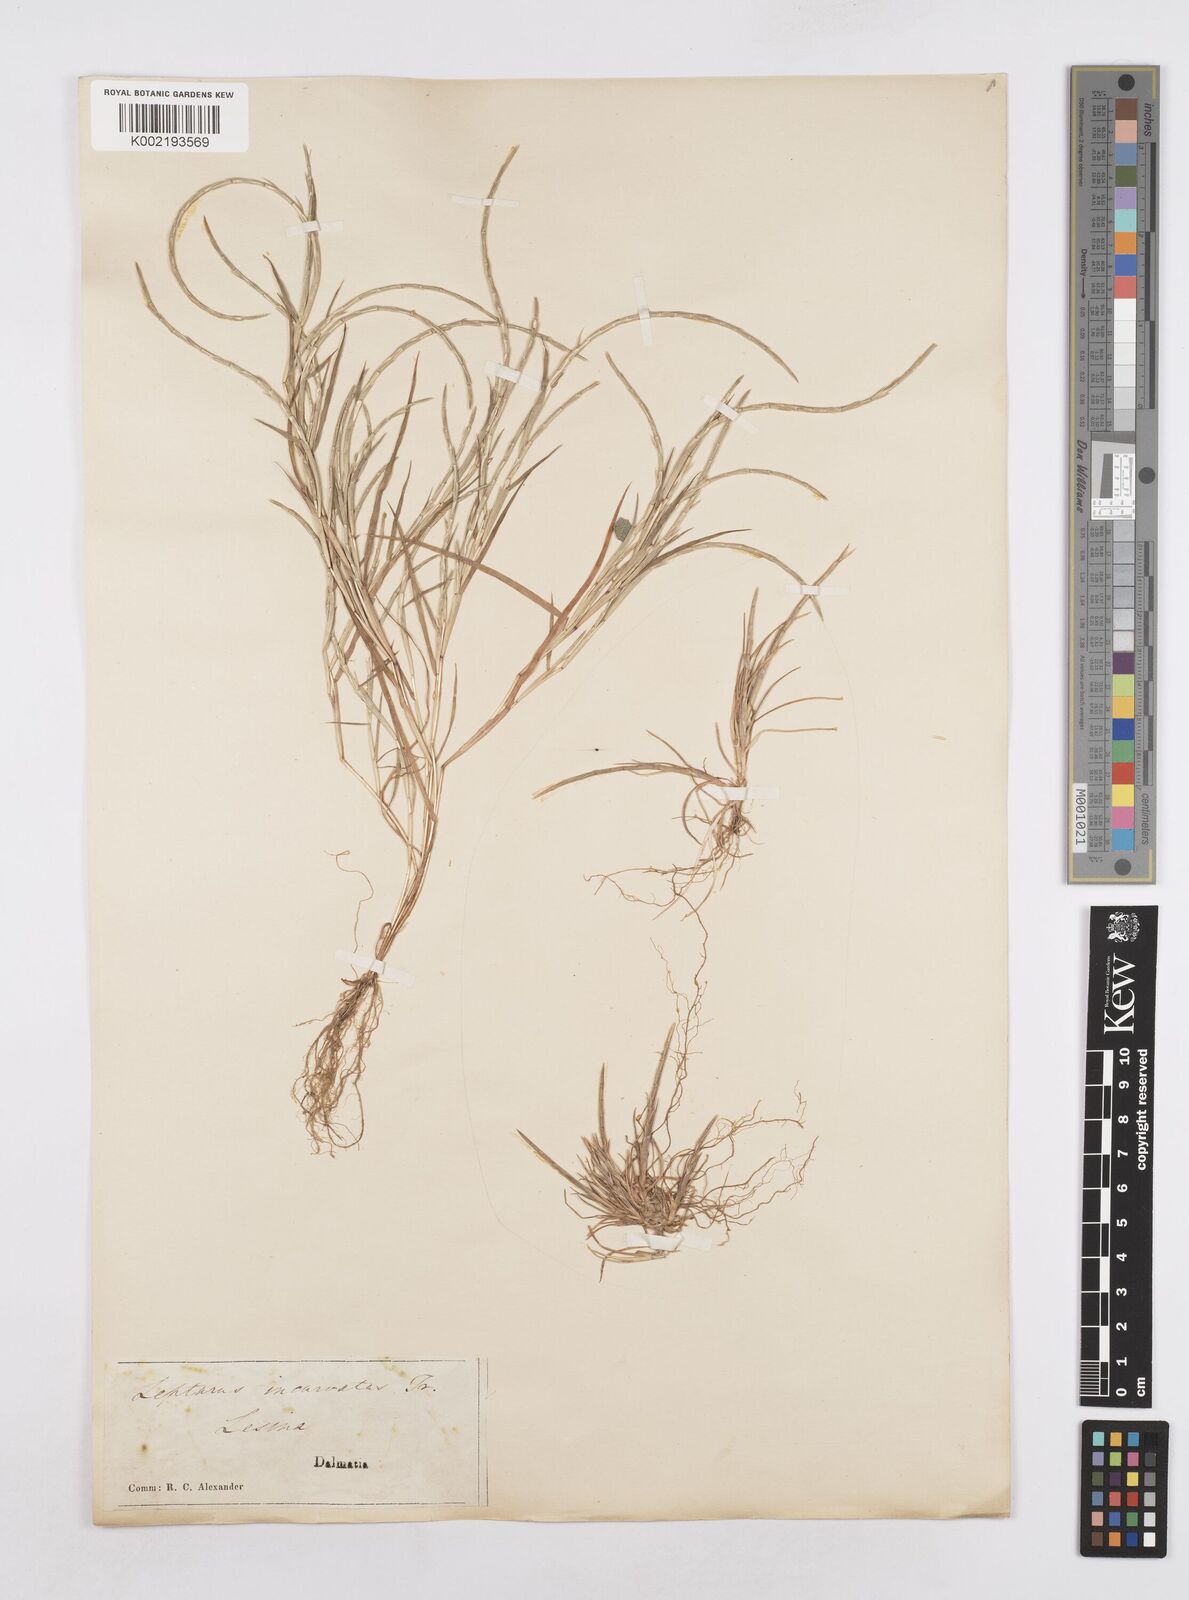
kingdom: Plantae
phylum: Tracheophyta
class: Liliopsida
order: Poales
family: Poaceae
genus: Parapholis
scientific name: Parapholis incurva
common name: Curved sicklegrass
